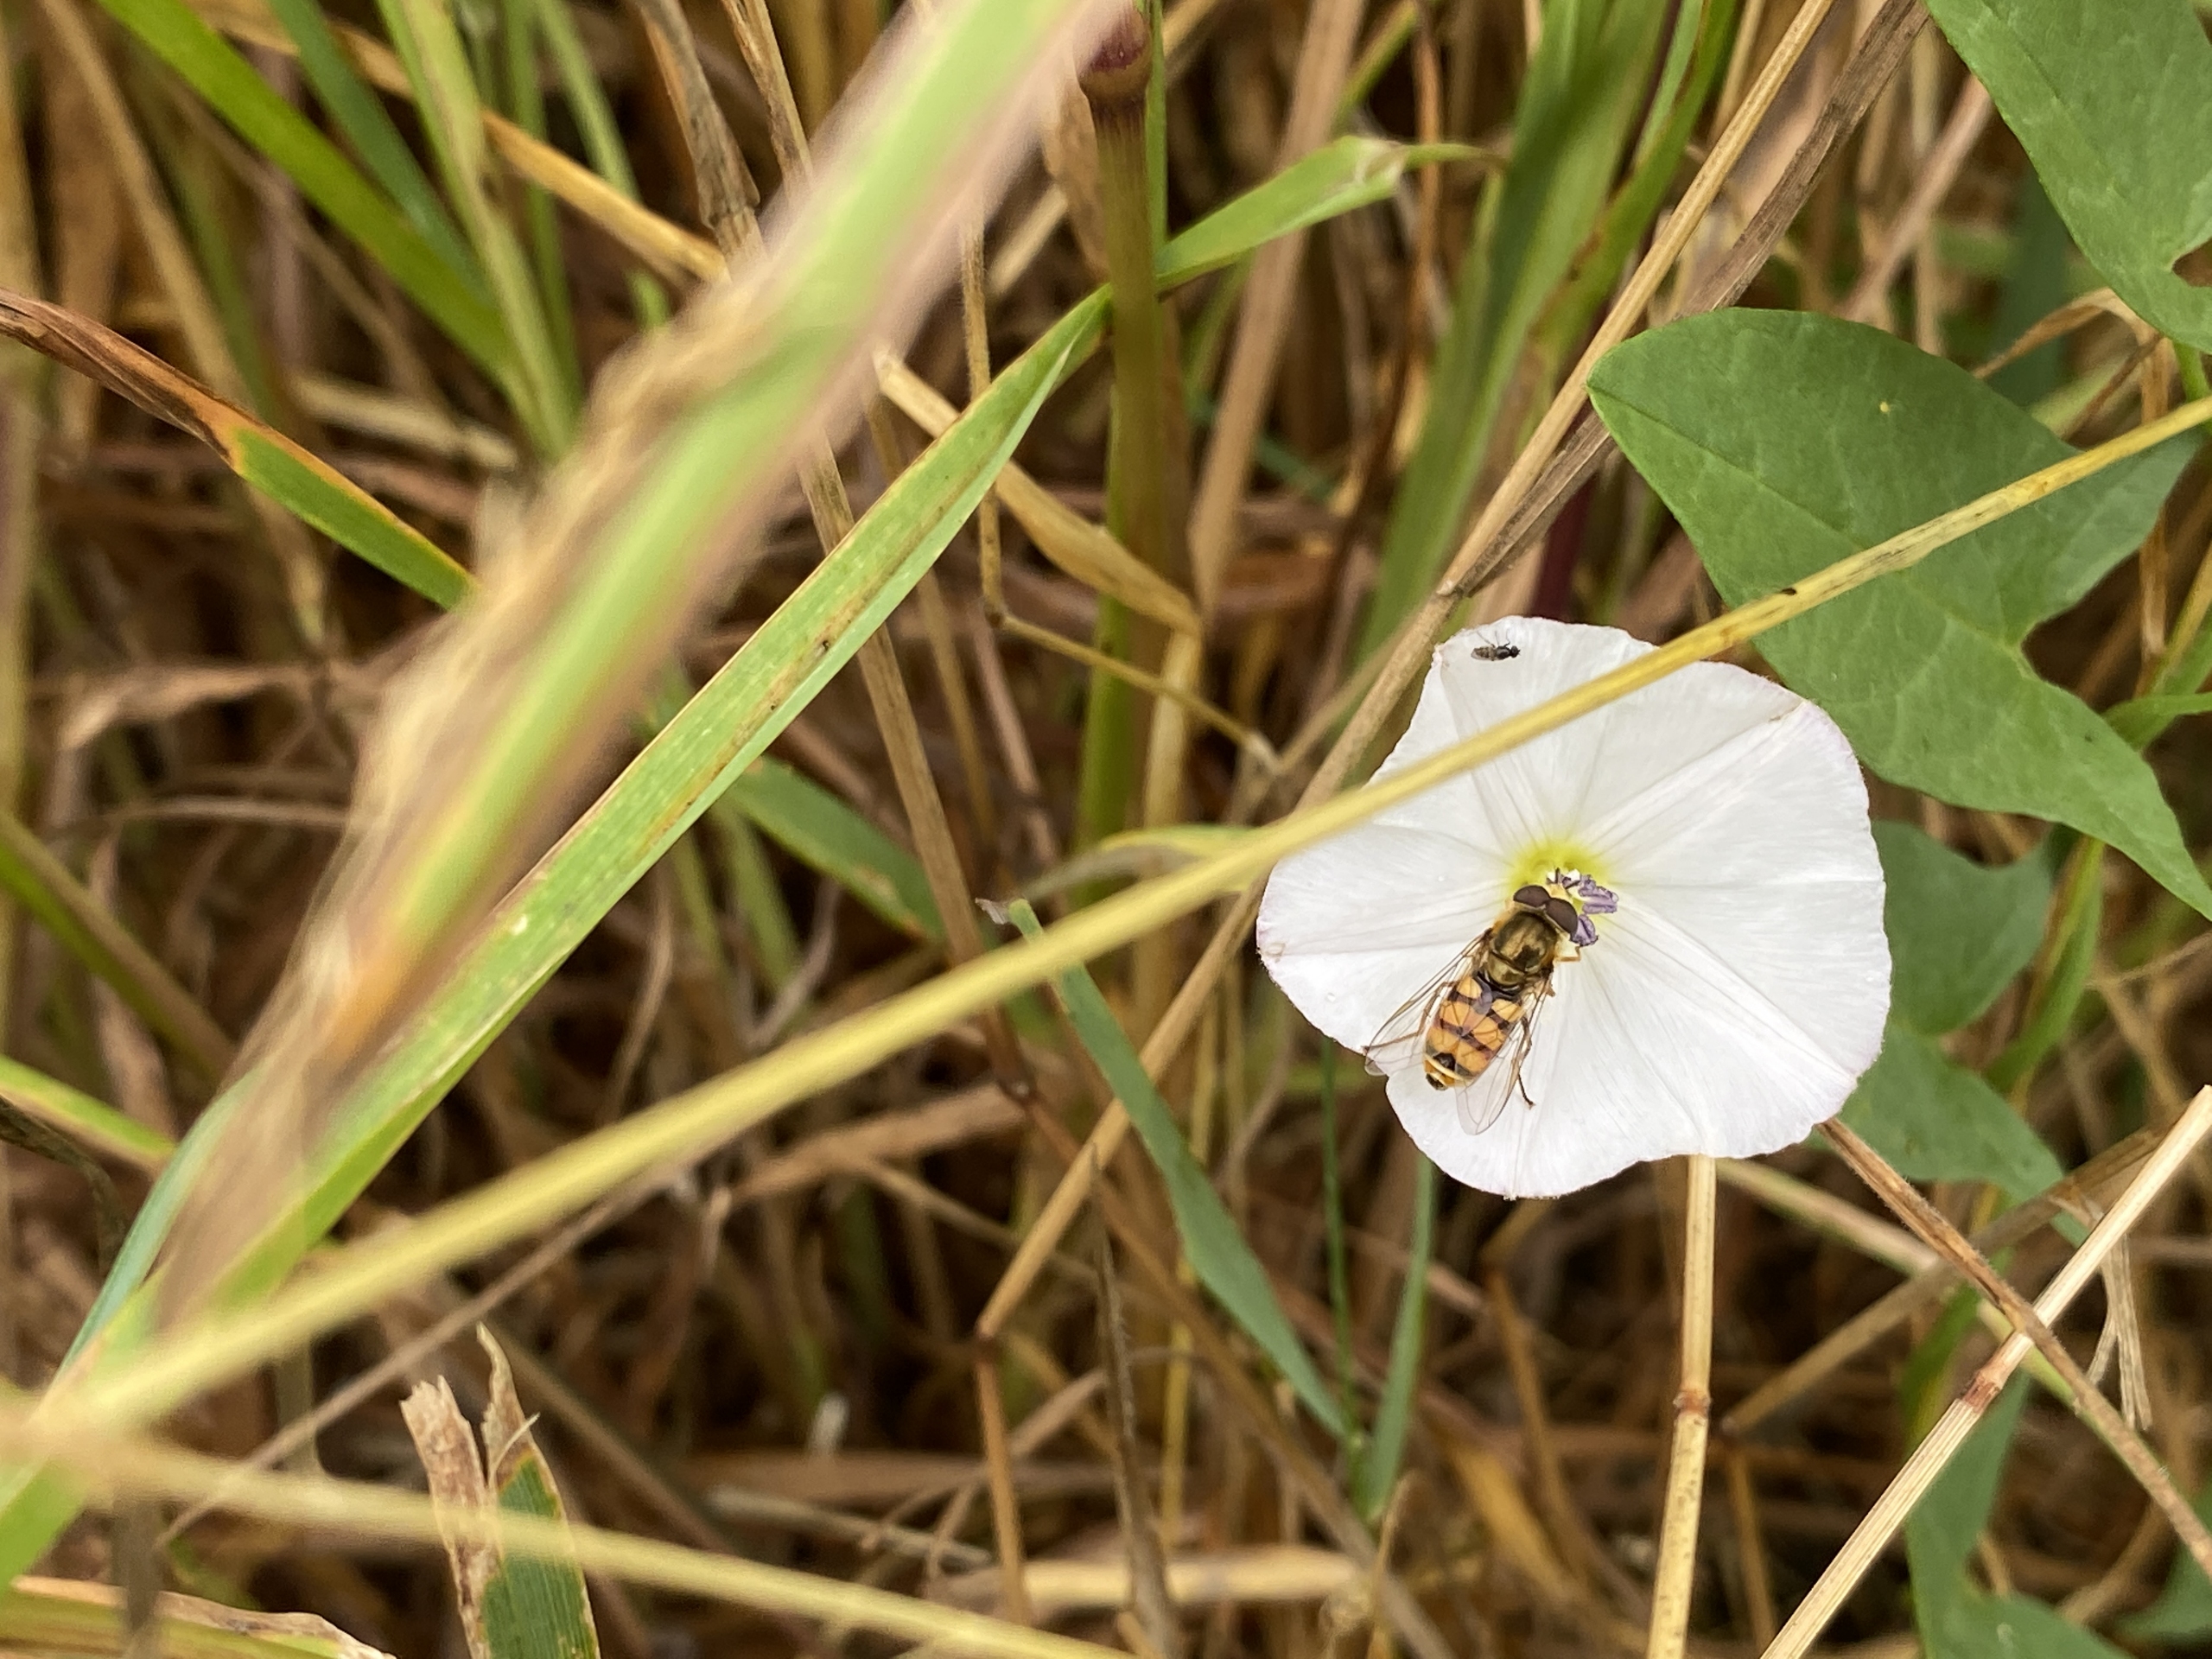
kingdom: Plantae
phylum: Tracheophyta
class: Magnoliopsida
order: Solanales
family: Convolvulaceae
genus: Convolvulus
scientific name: Convolvulus arvensis
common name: Ager-snerle
